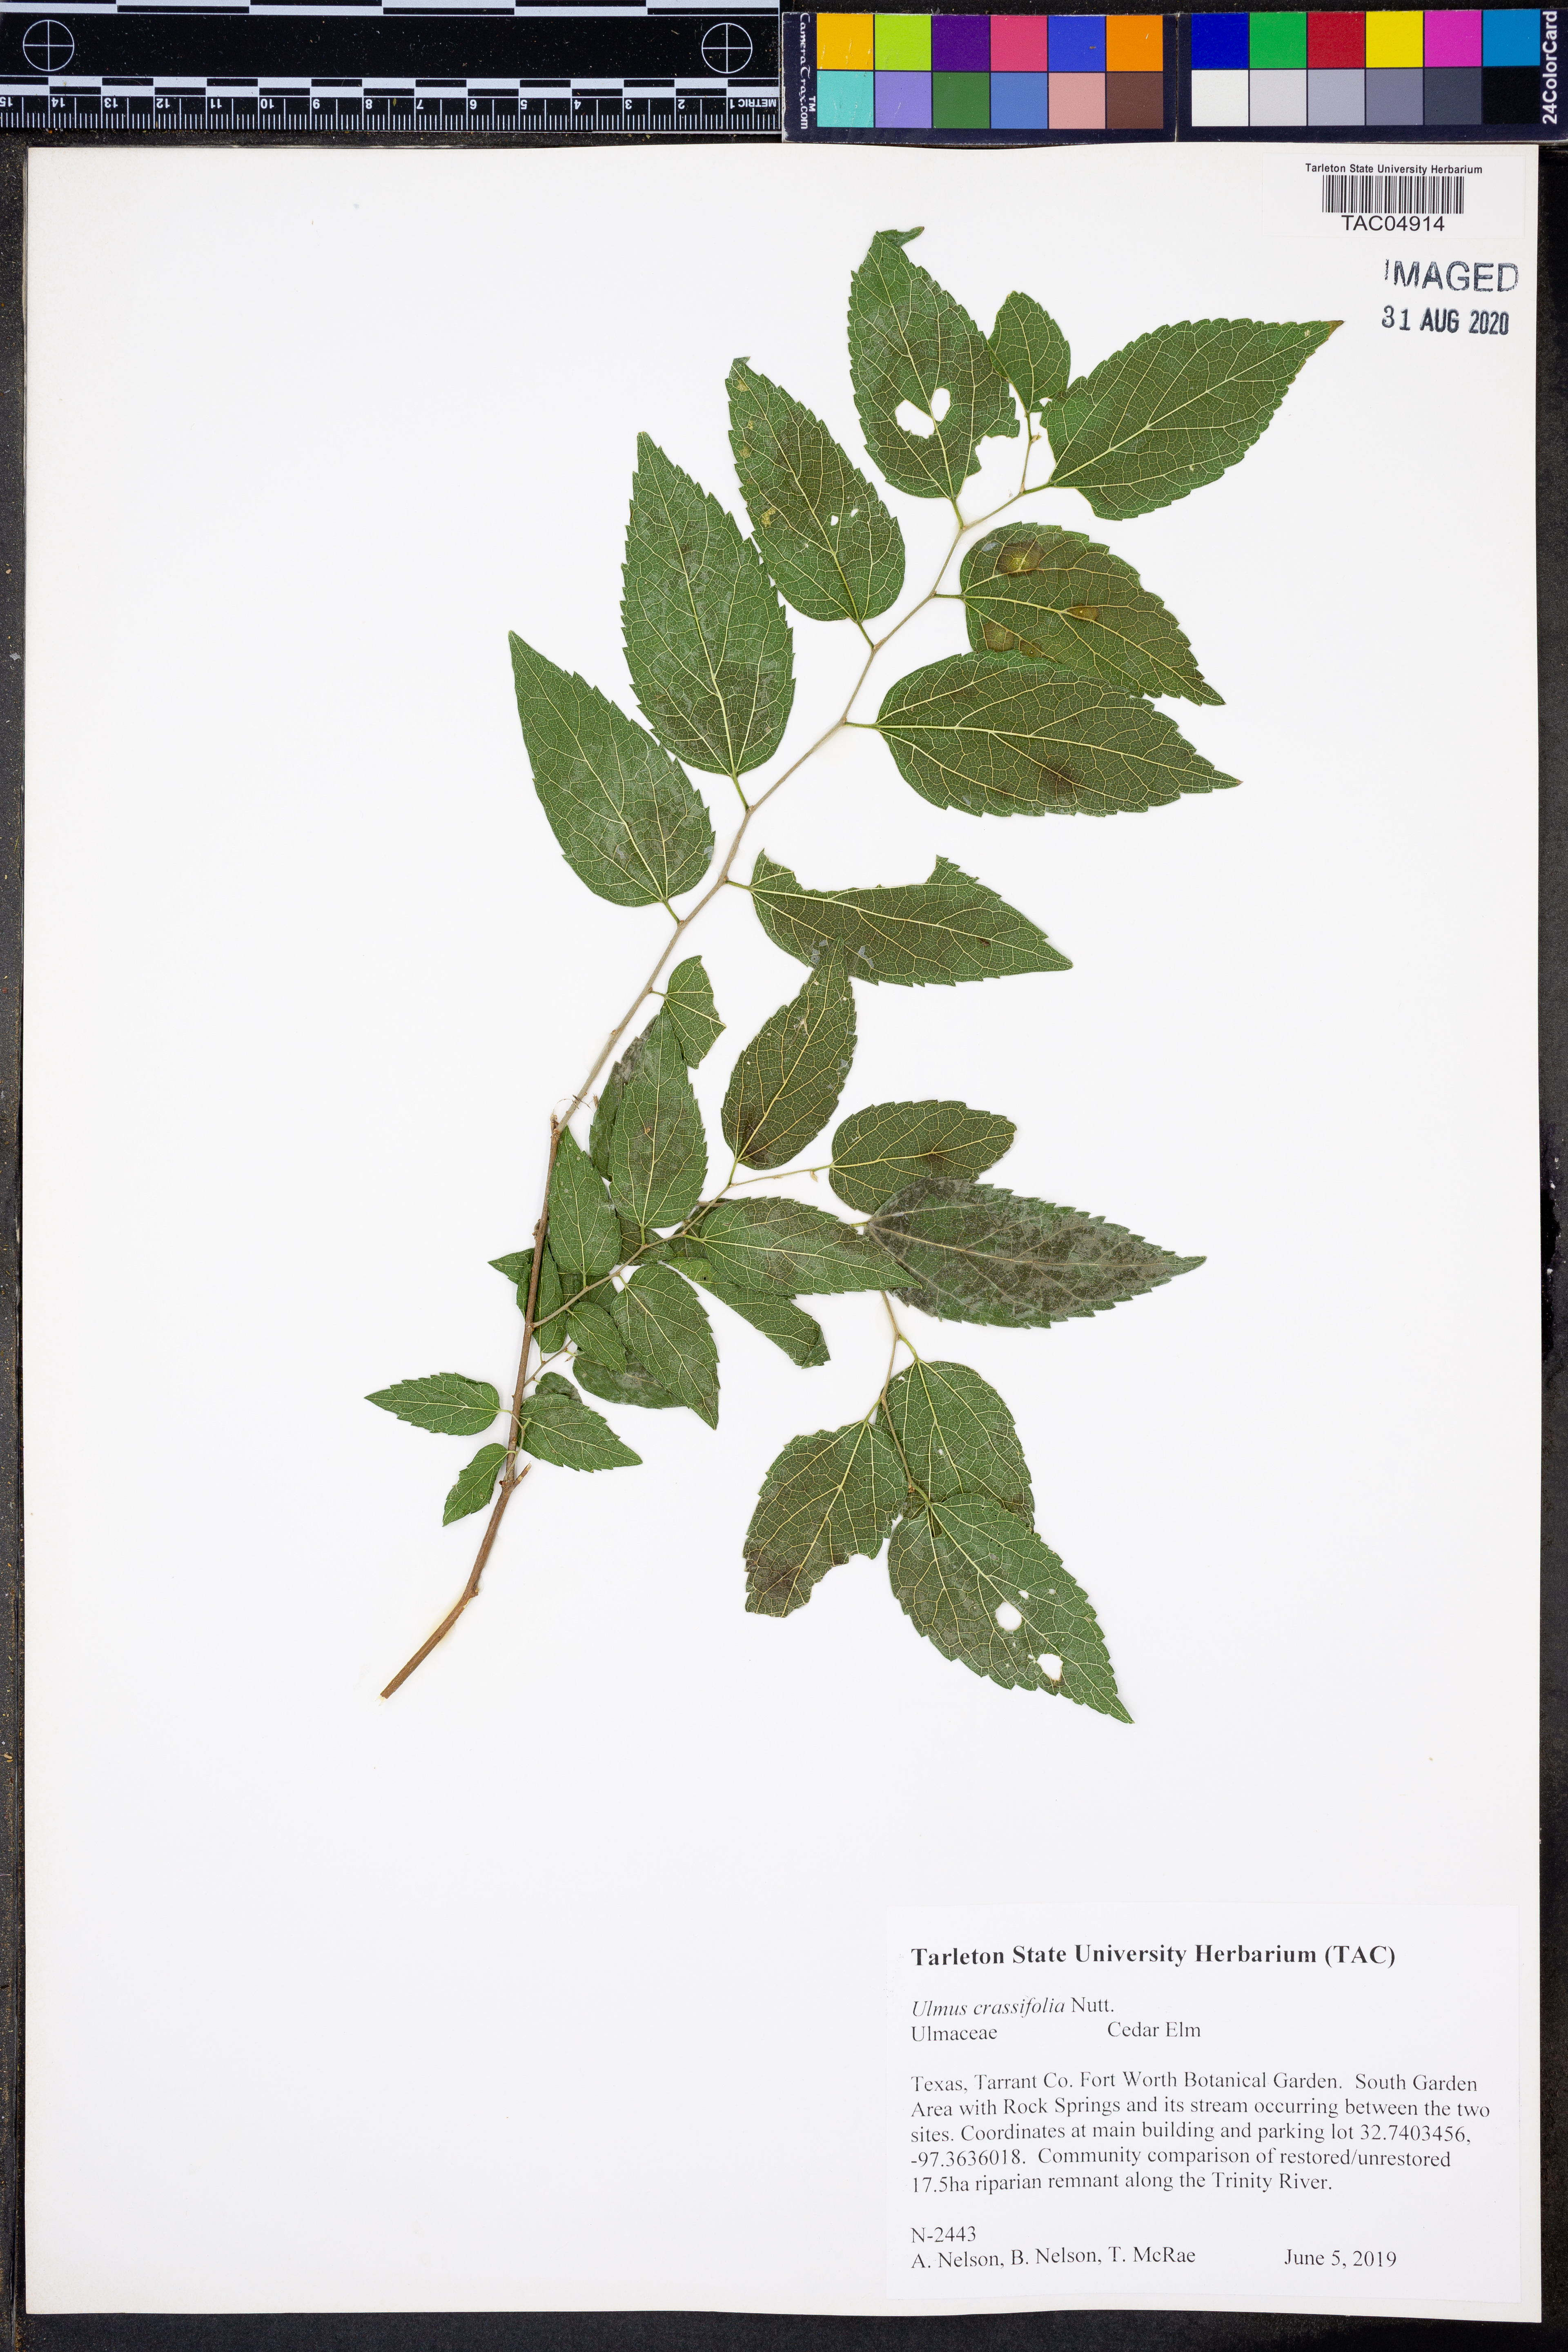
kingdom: Plantae
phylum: Tracheophyta
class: Magnoliopsida
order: Rosales
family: Ulmaceae
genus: Ulmus
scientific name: Ulmus crassifolia
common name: Basket elm
